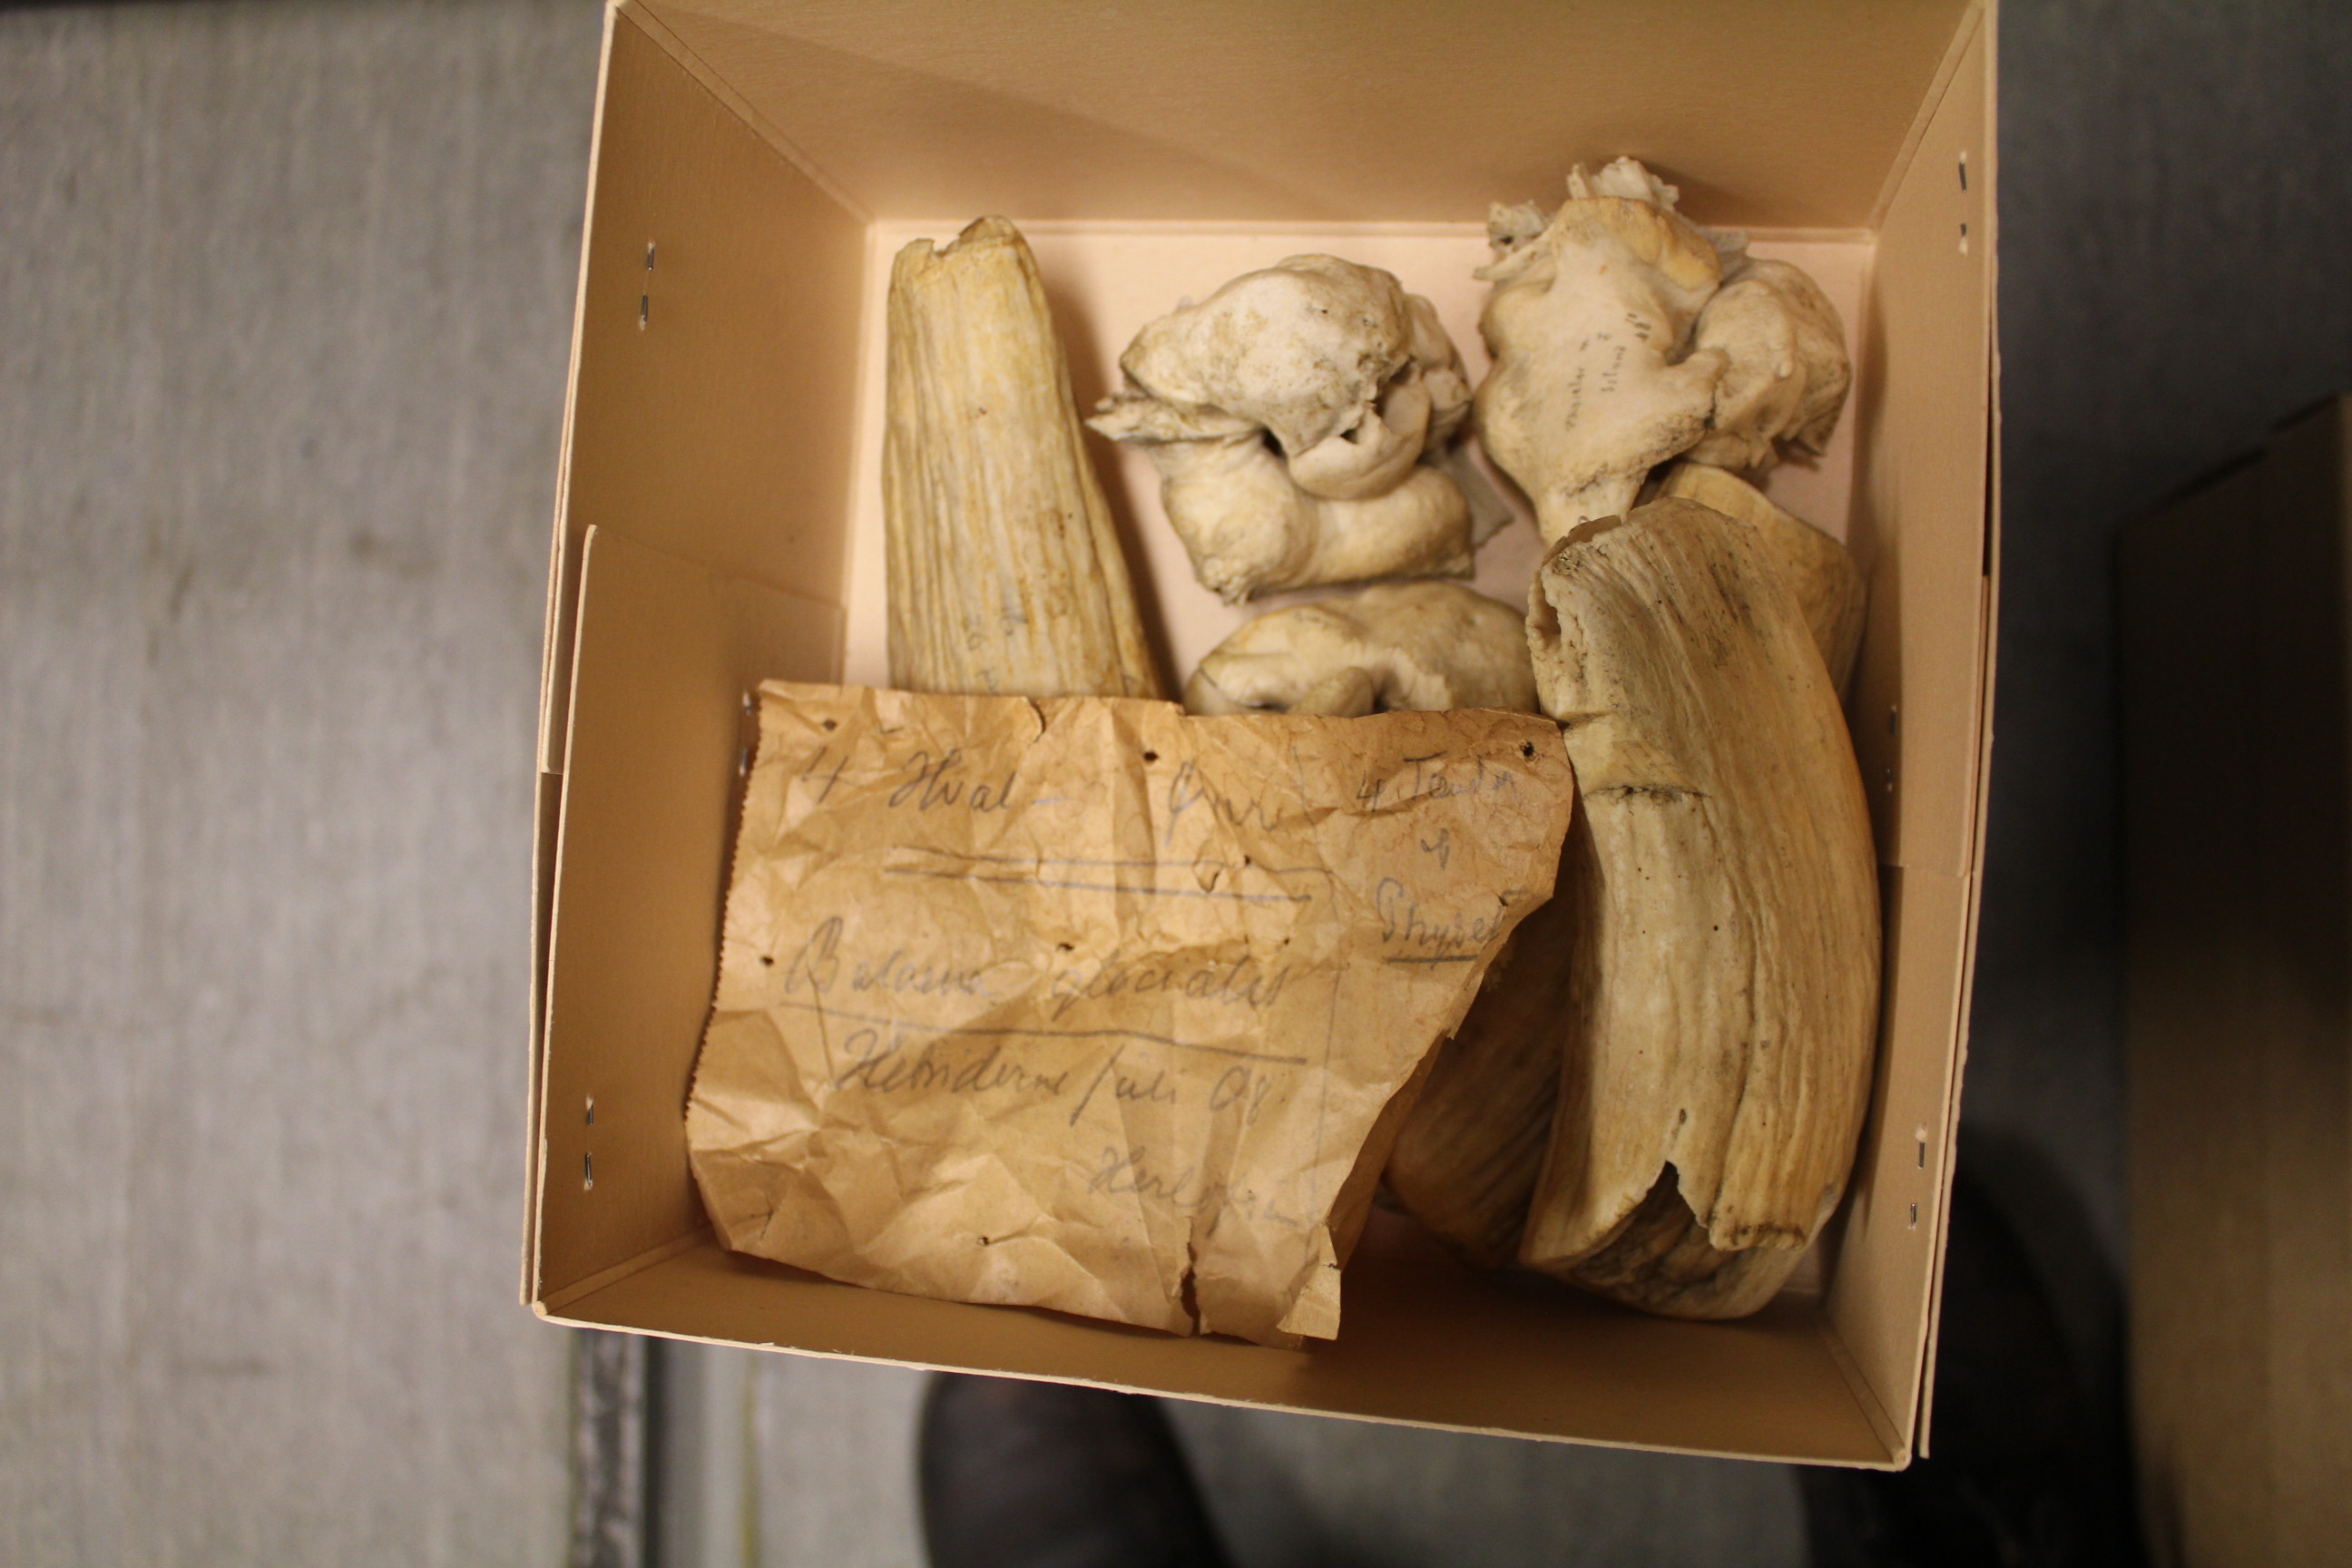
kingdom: Animalia
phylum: Chordata
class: Mammalia
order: Cetacea
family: Balaenidae
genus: Eubalaena
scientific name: Eubalaena glacialis
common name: North atlantic right whale
